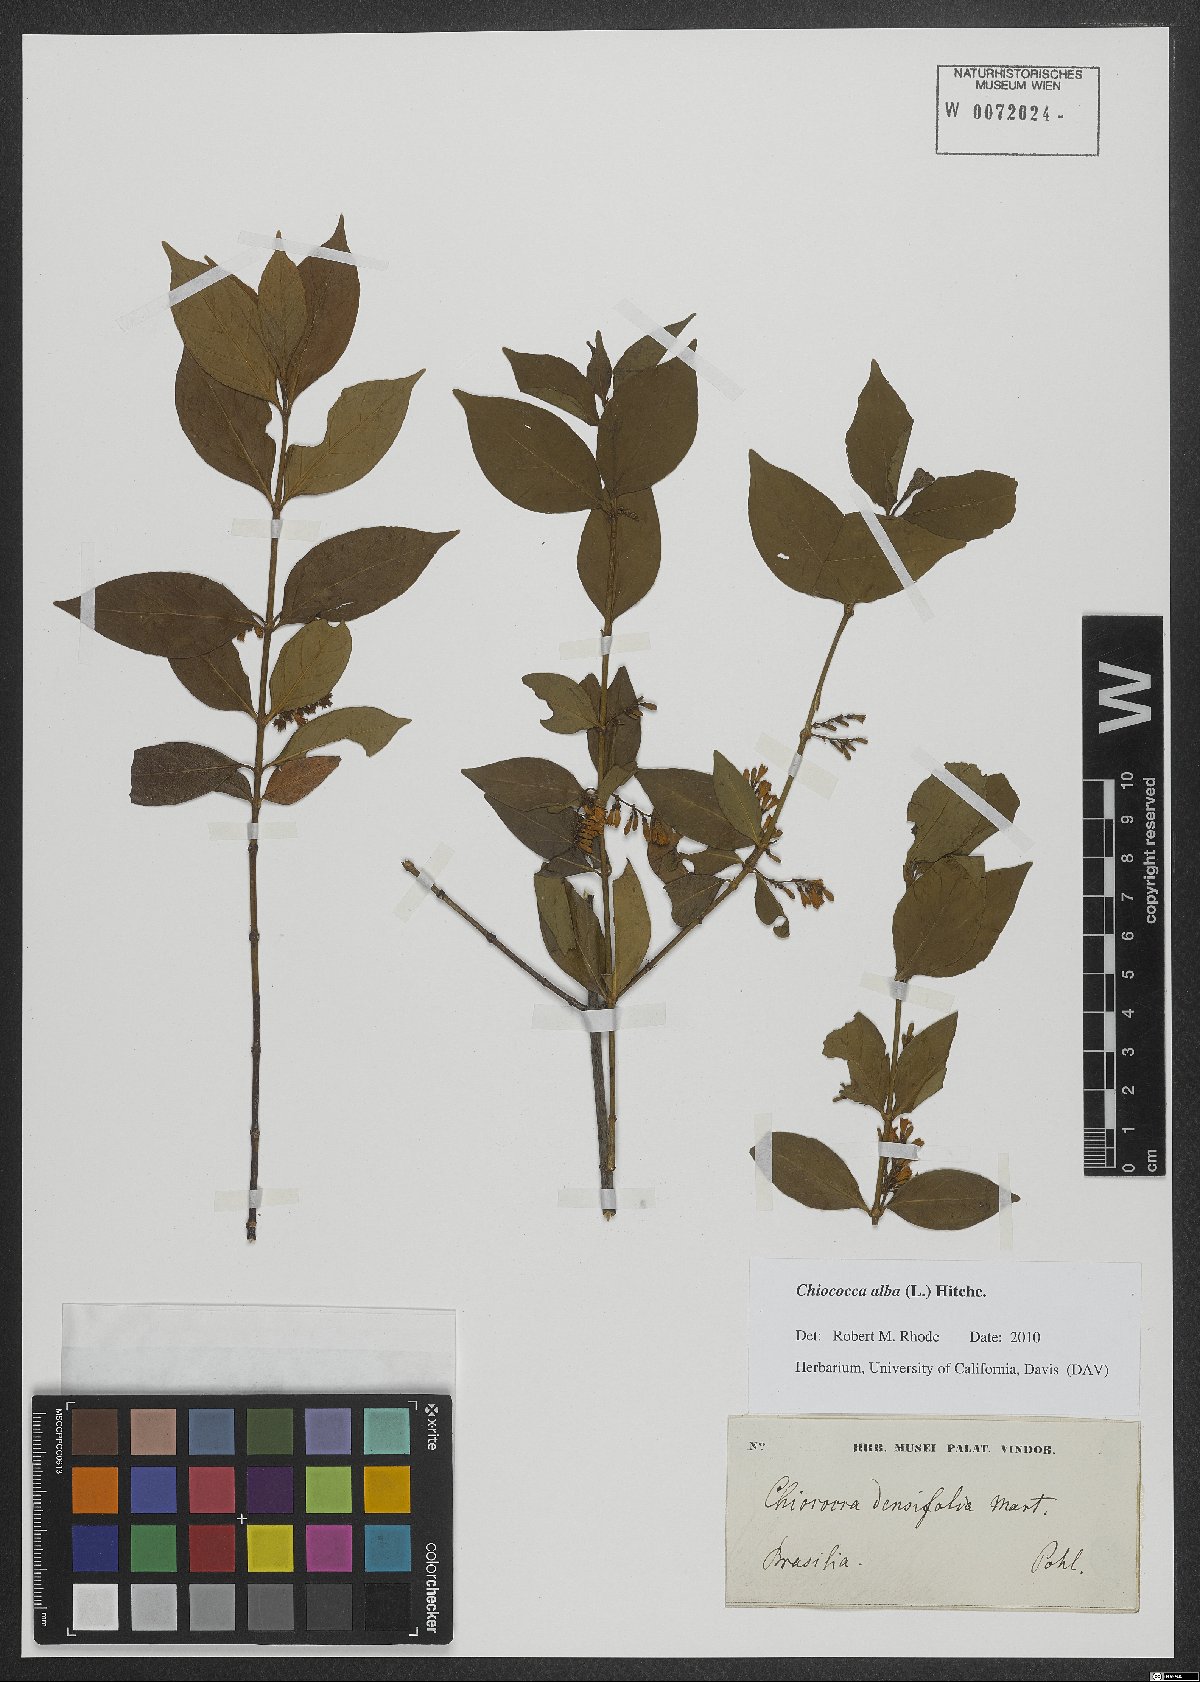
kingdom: Plantae
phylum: Tracheophyta
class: Magnoliopsida
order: Gentianales
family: Rubiaceae
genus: Chiococca
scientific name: Chiococca alba
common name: Snowberry
